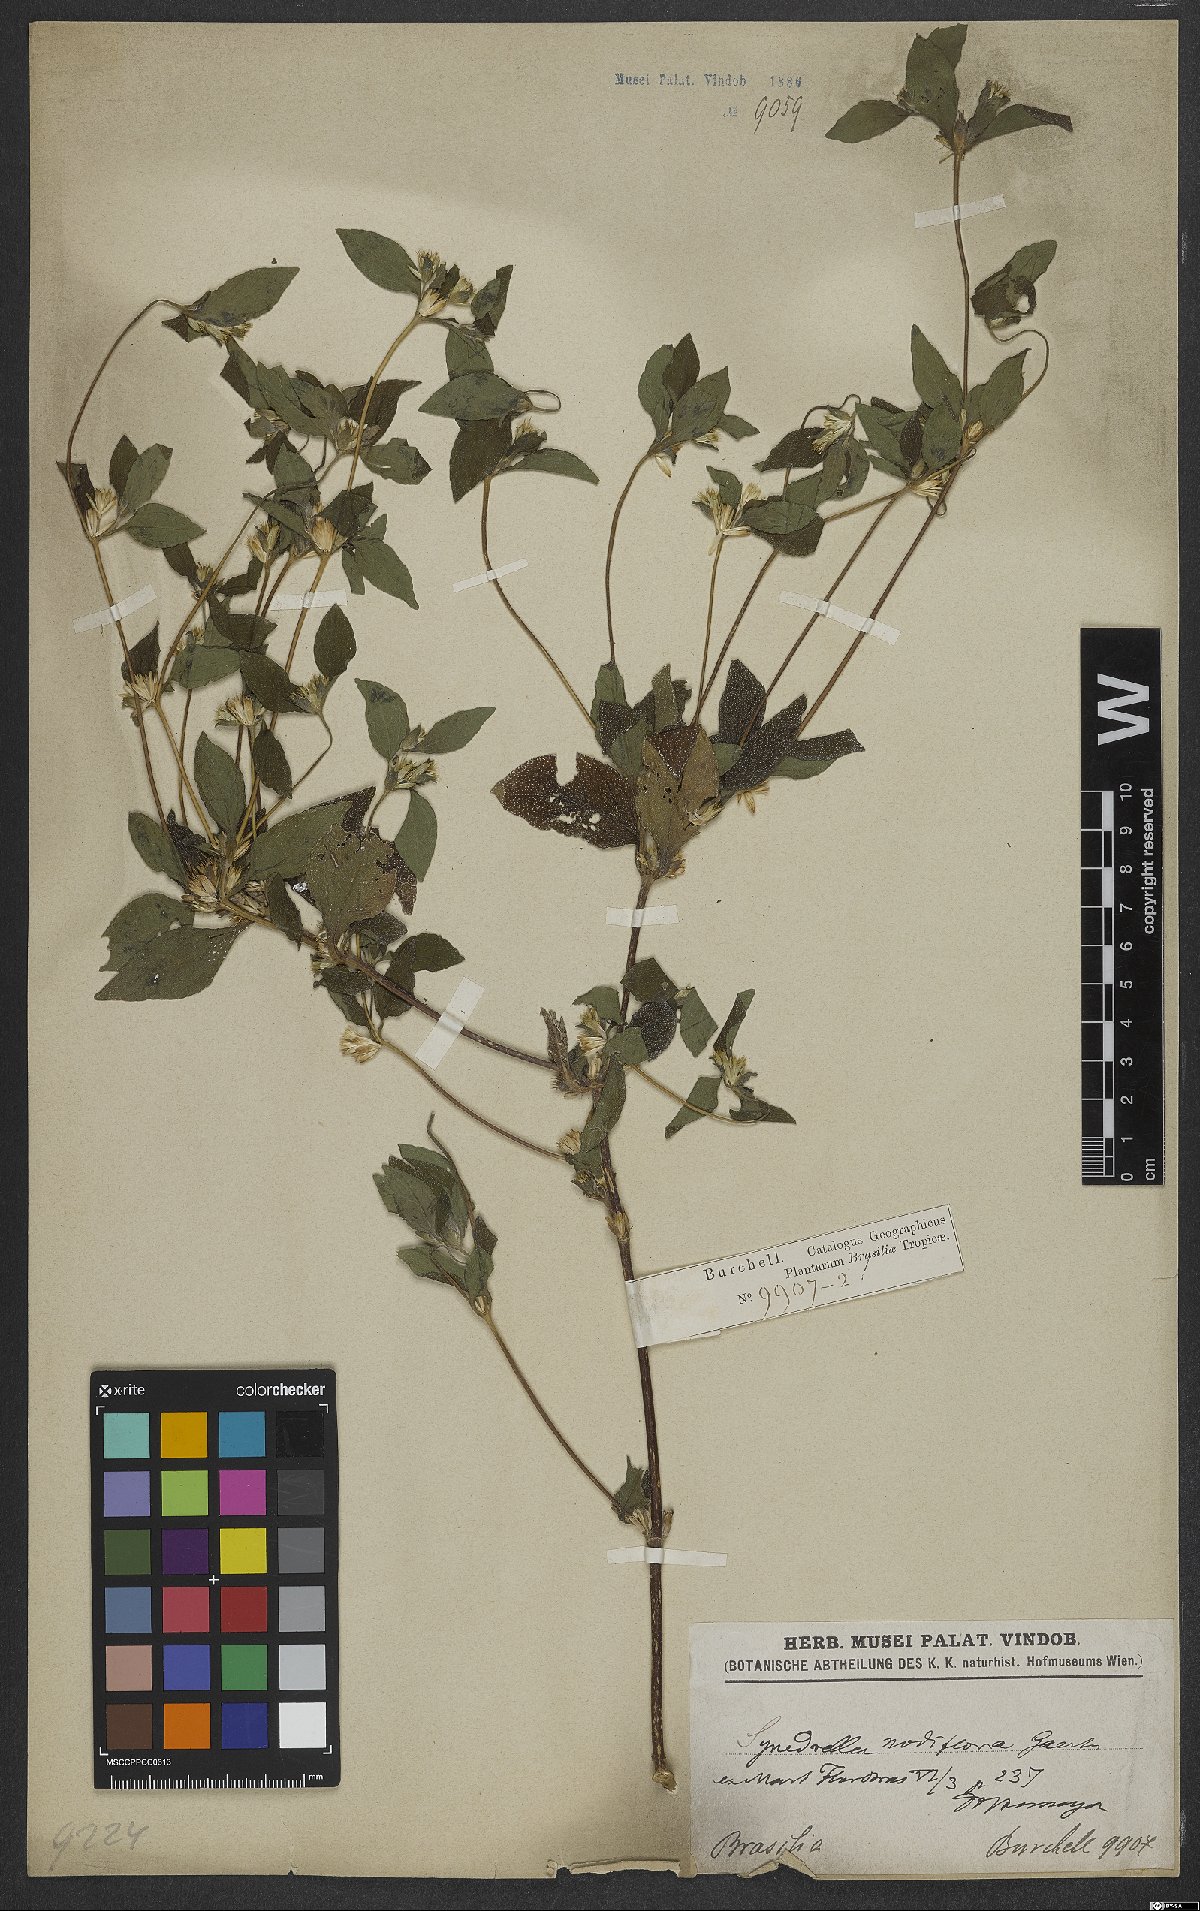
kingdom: Plantae
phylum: Tracheophyta
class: Magnoliopsida
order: Asterales
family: Asteraceae
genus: Synedrella
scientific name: Synedrella nodiflora
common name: Nodeweed
